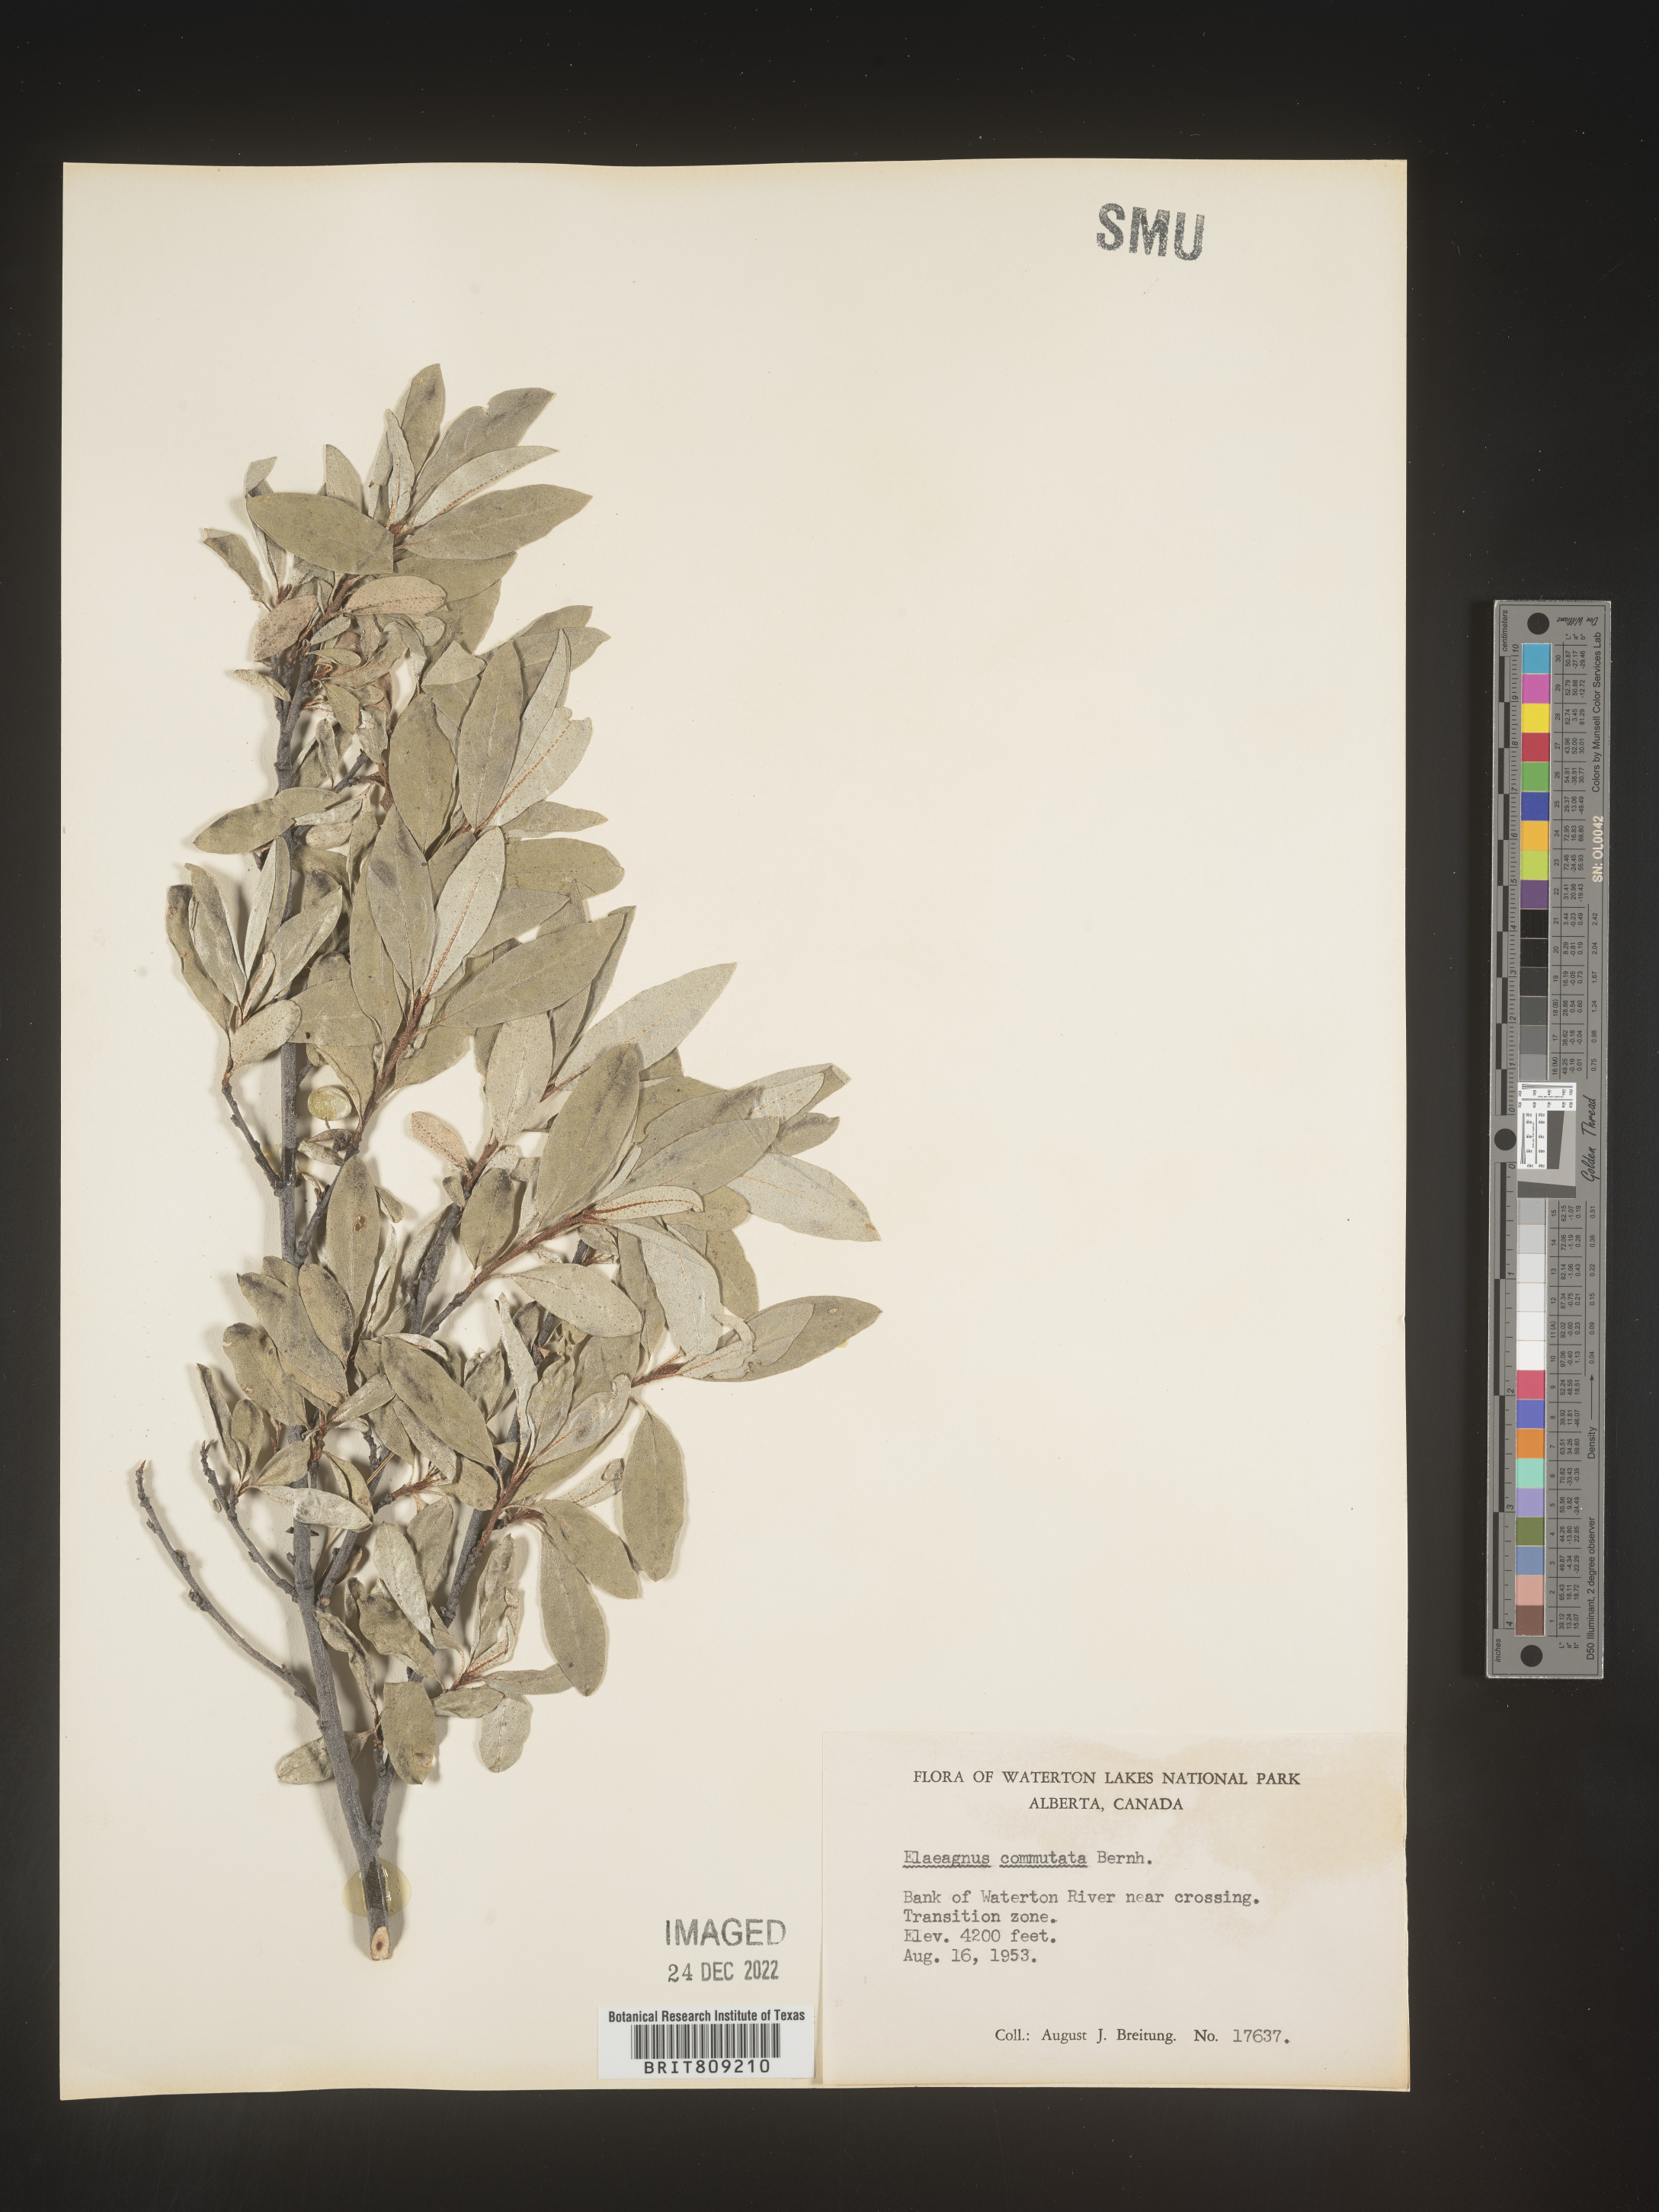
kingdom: Plantae
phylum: Tracheophyta
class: Magnoliopsida
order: Rosales
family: Elaeagnaceae
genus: Elaeagnus
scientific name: Elaeagnus
